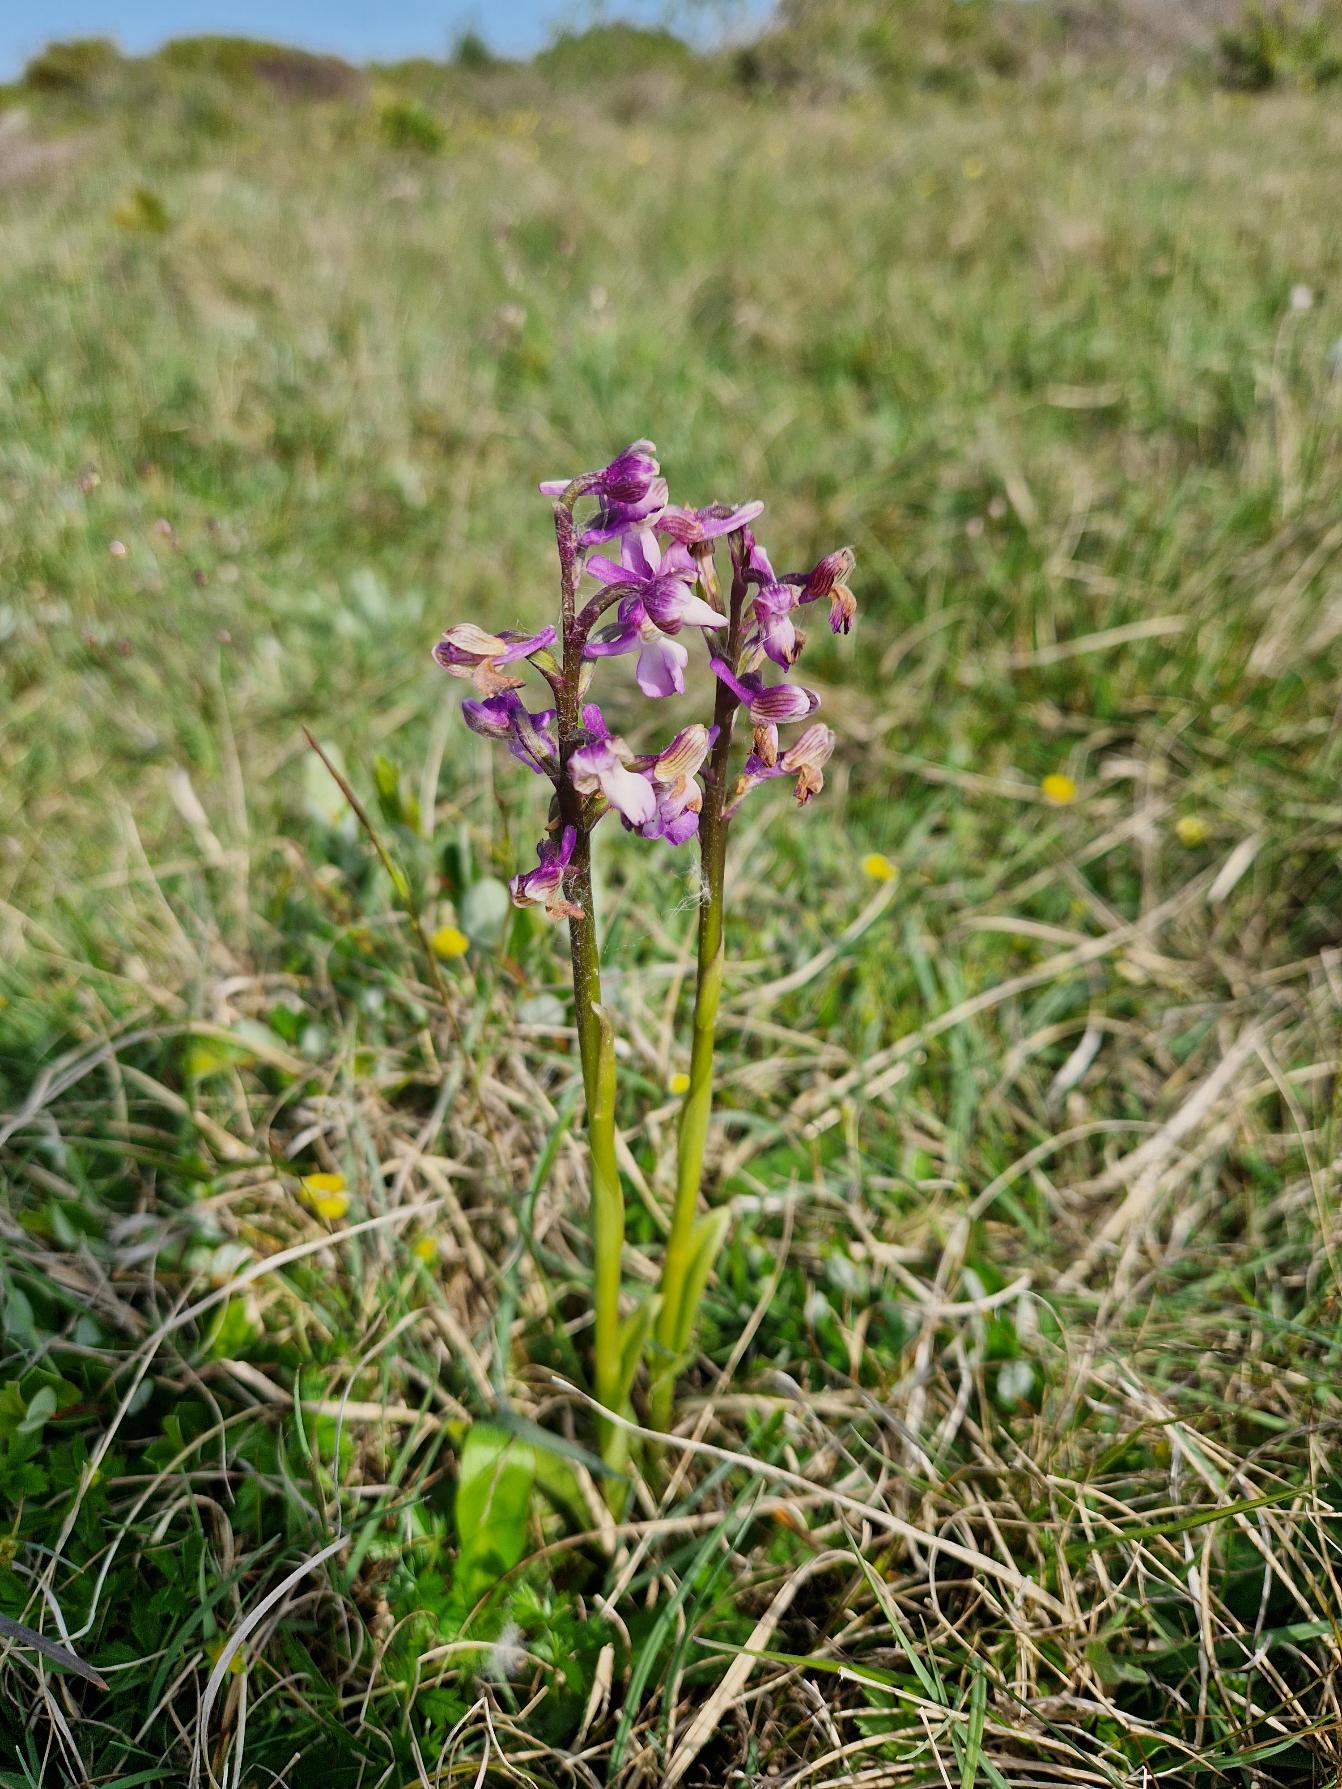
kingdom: Plantae
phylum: Tracheophyta
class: Liliopsida
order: Asparagales
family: Orchidaceae
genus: Anacamptis
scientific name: Anacamptis morio
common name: Salepgøgeurt
